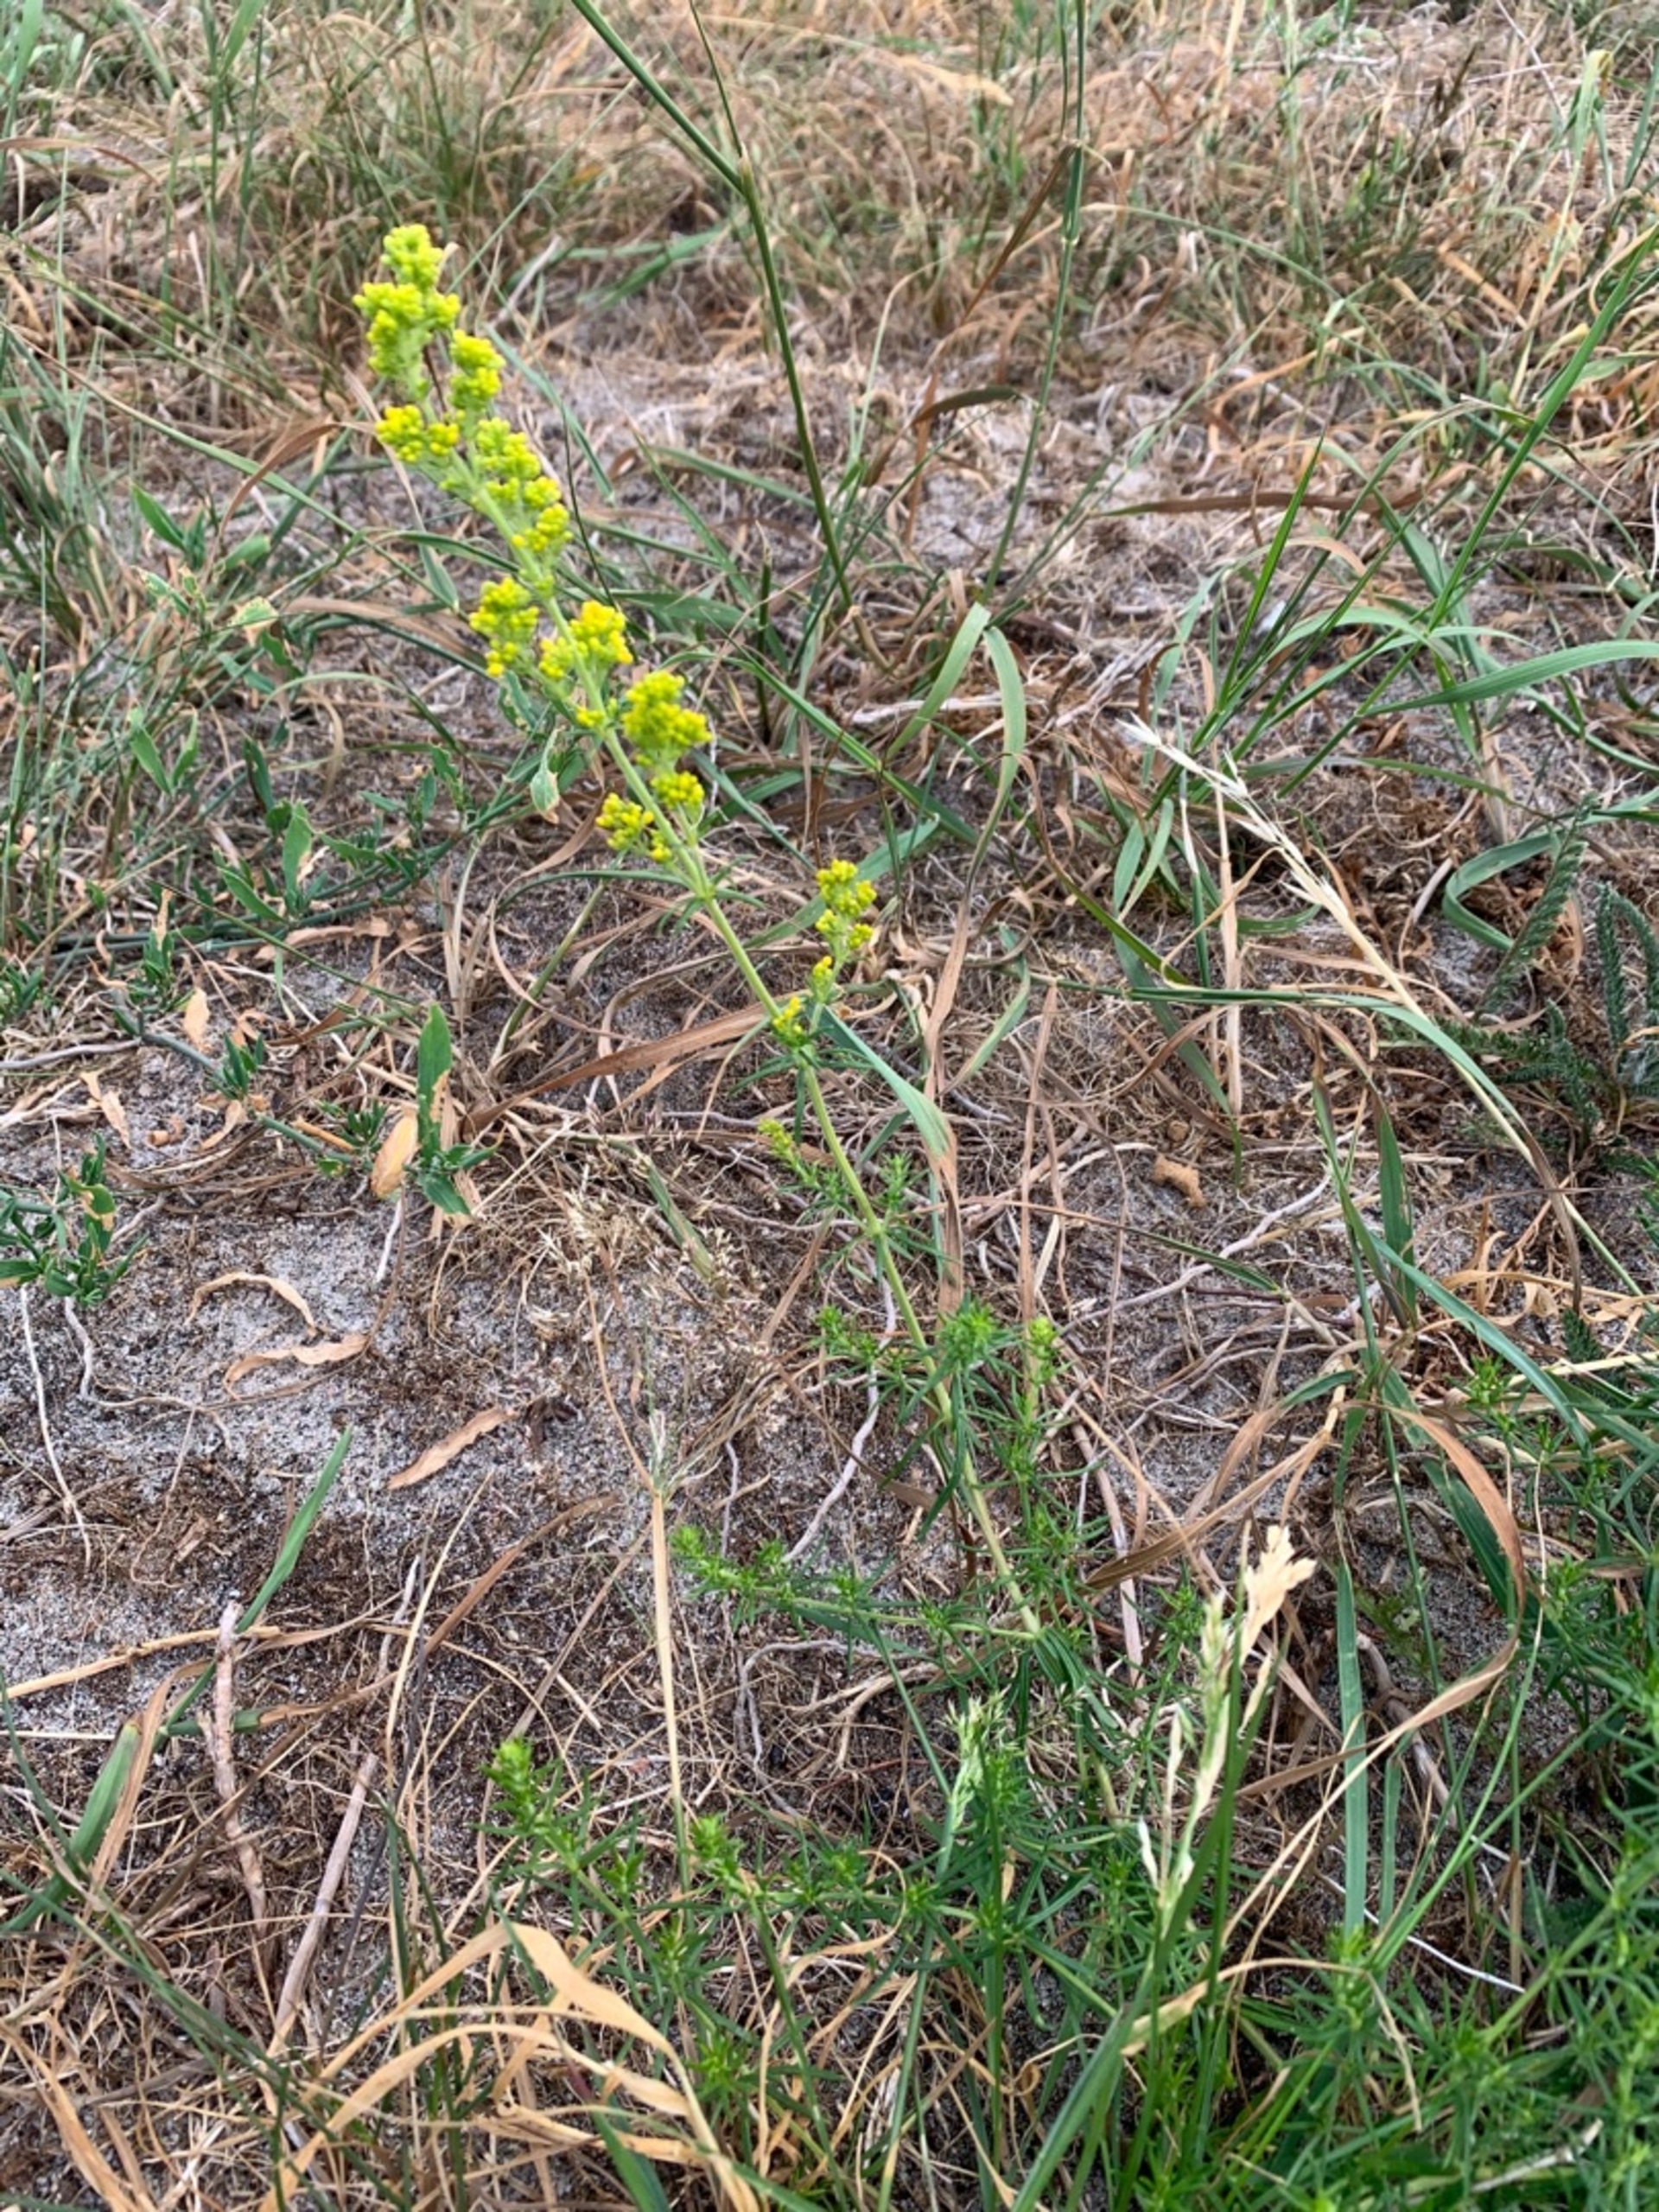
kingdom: Plantae
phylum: Tracheophyta
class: Magnoliopsida
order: Gentianales
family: Rubiaceae
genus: Galium
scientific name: Galium verum
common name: Gul snerre
